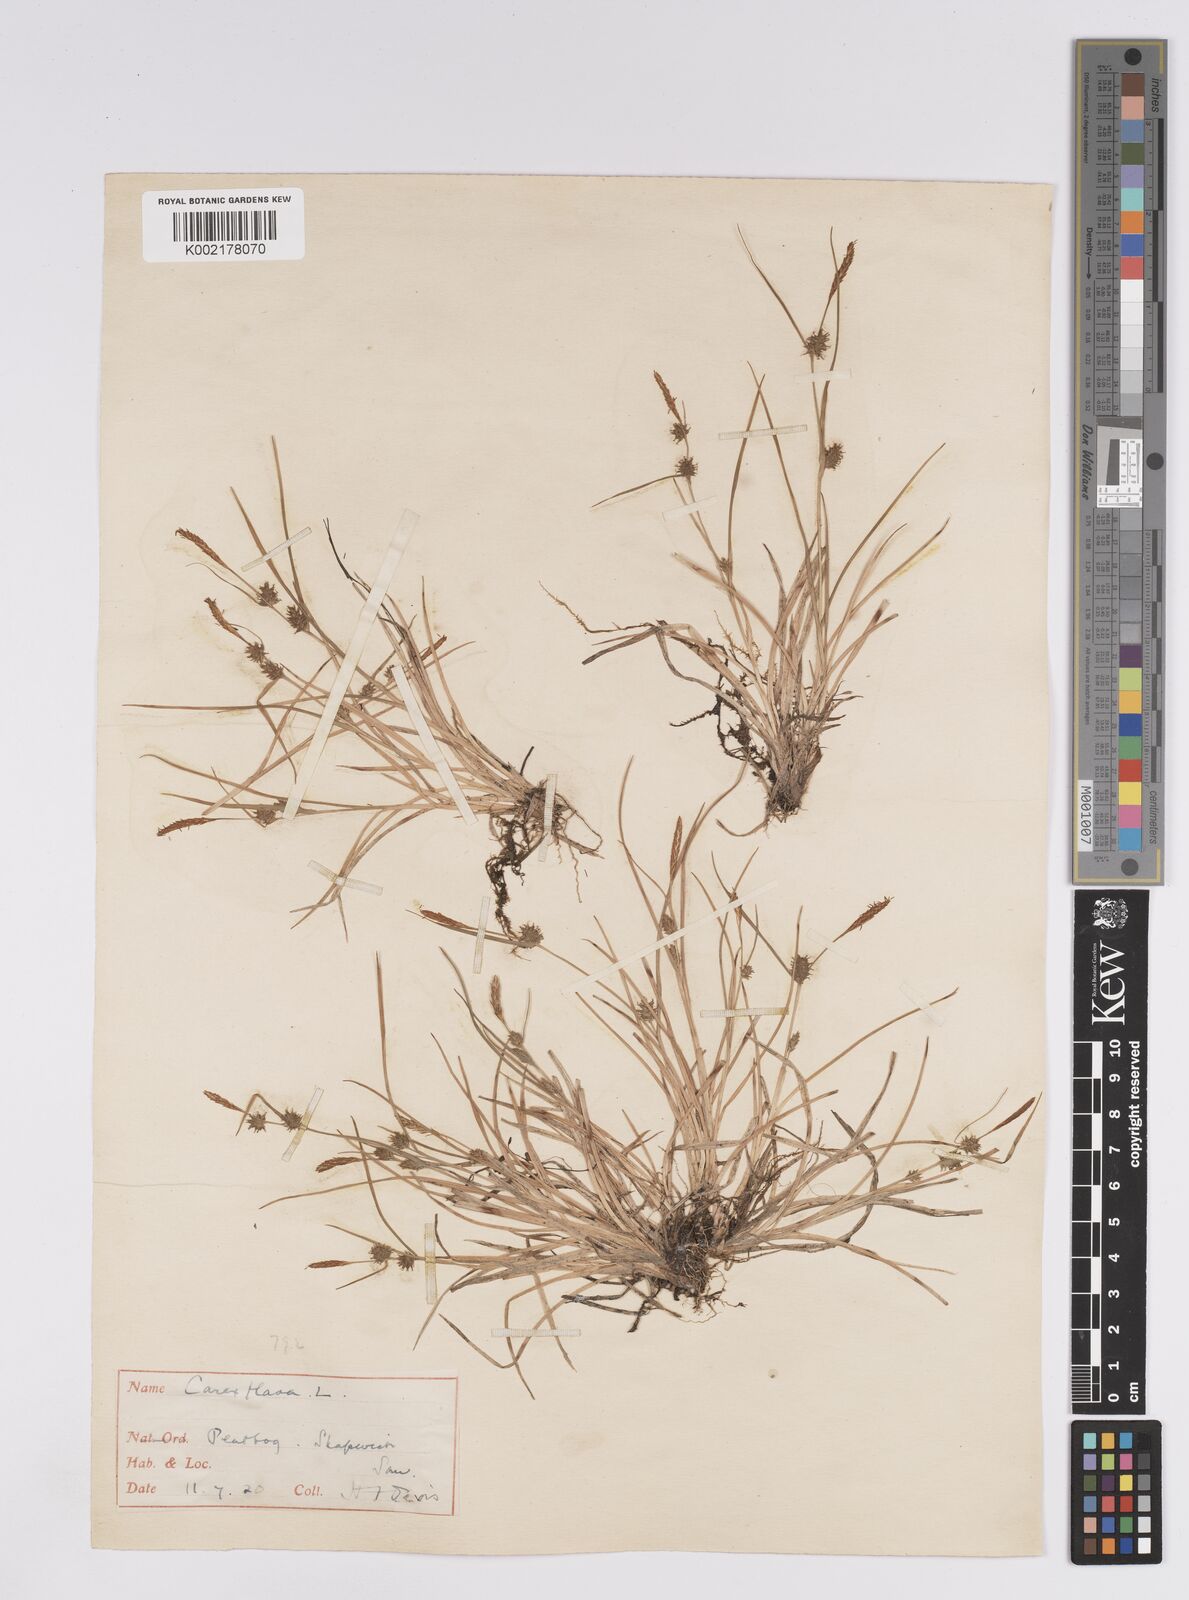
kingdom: Plantae
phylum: Tracheophyta
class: Liliopsida
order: Poales
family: Cyperaceae
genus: Carex
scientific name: Carex demissa
